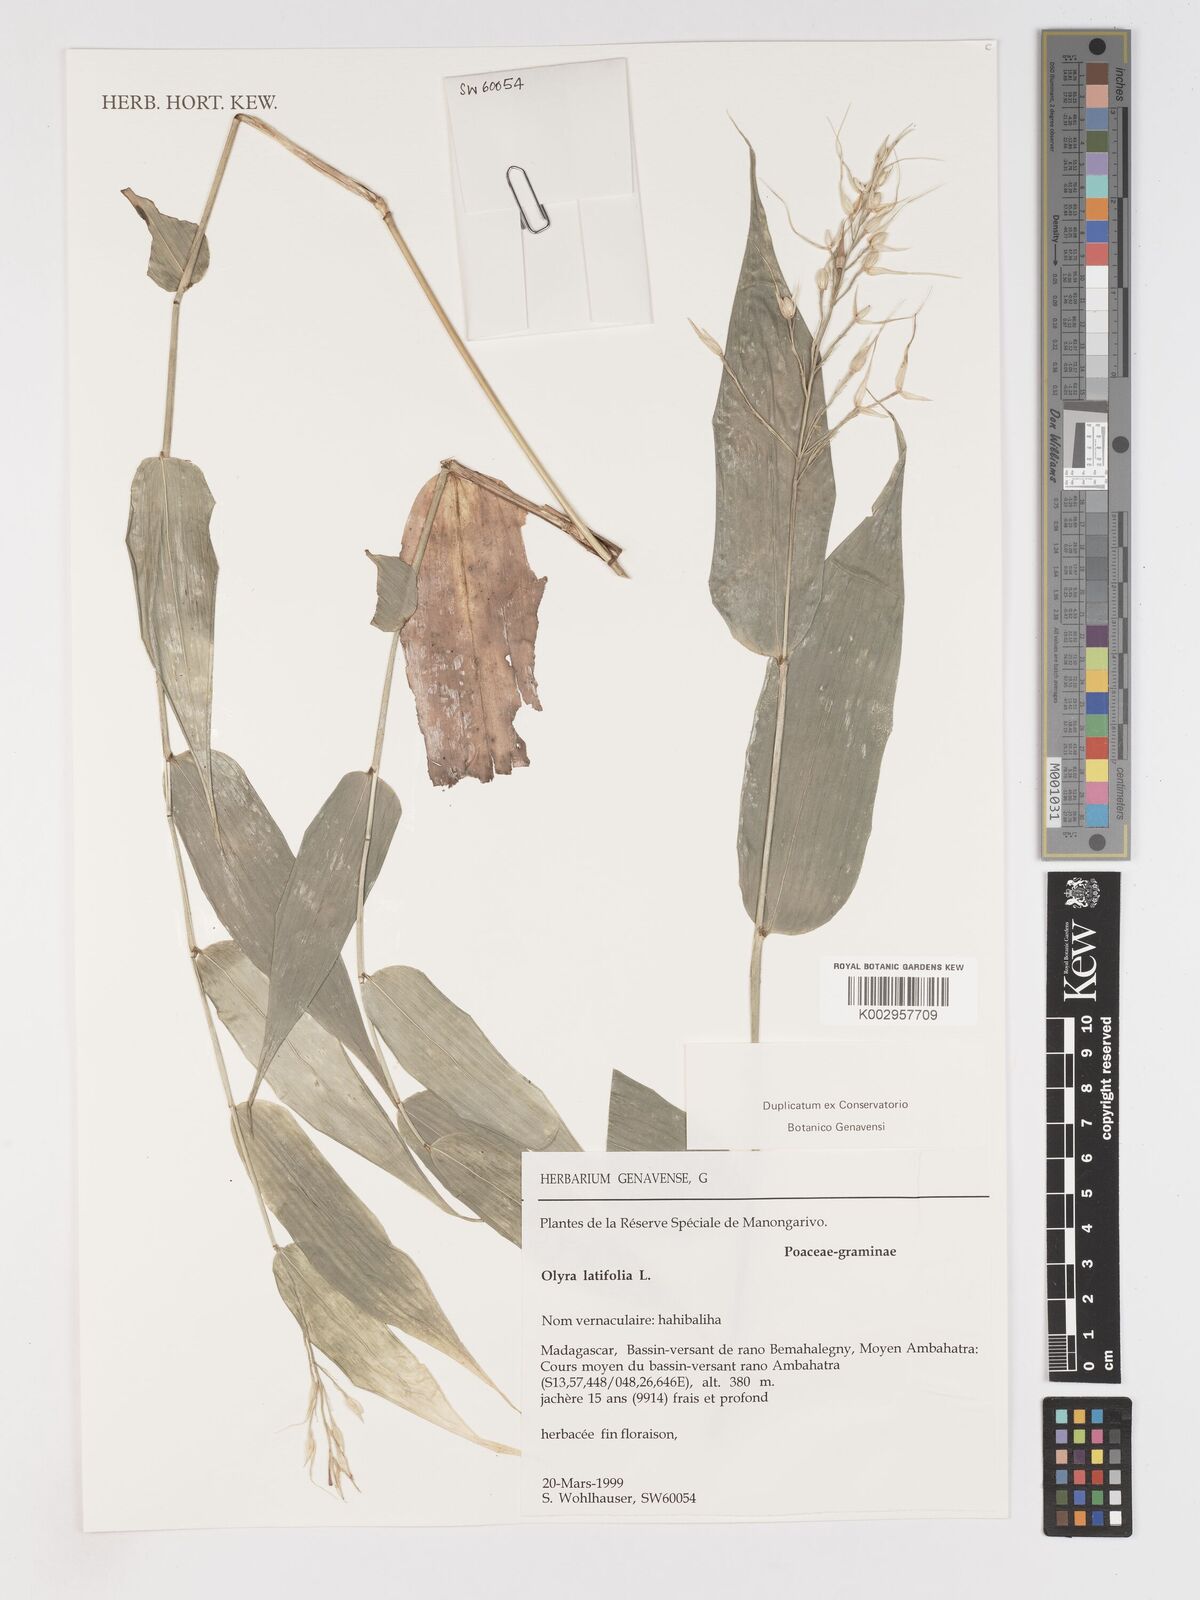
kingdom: Plantae
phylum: Tracheophyta
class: Liliopsida
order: Poales
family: Poaceae
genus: Olyra
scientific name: Olyra latifolia
